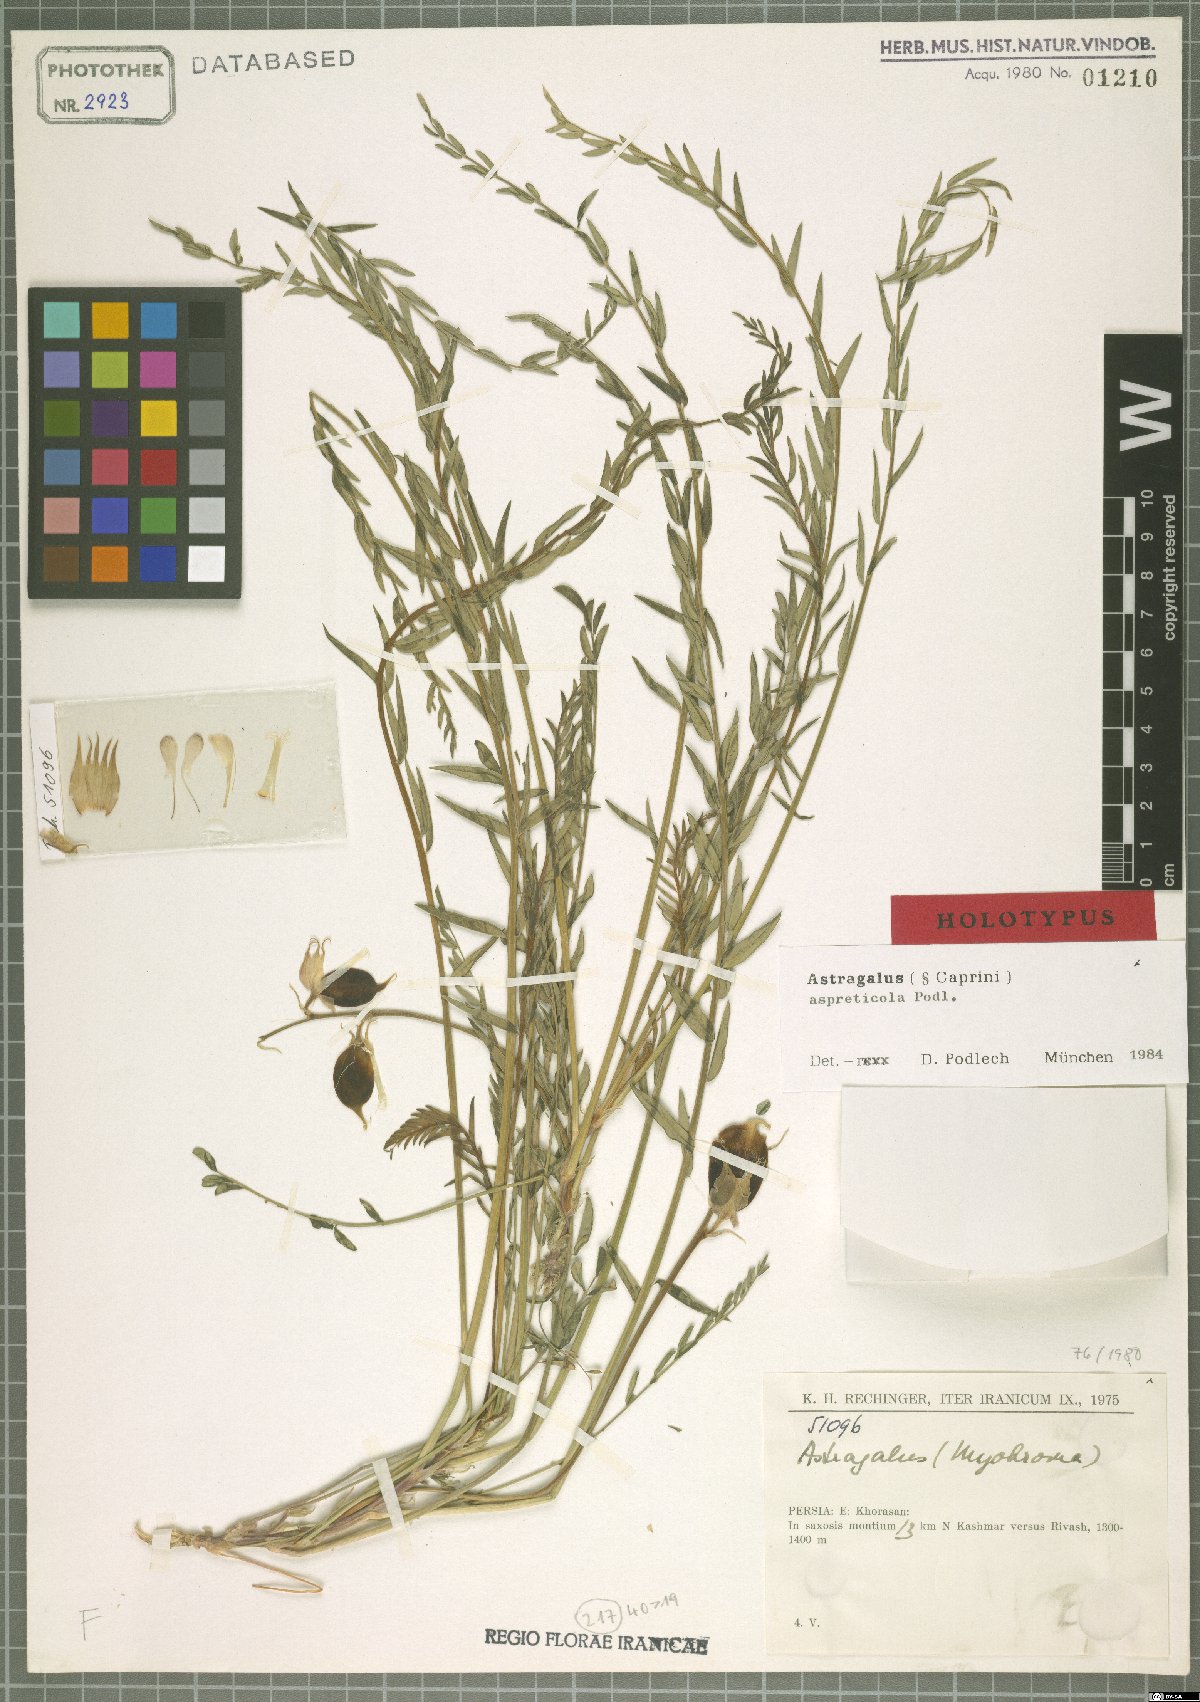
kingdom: Plantae
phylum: Tracheophyta
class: Magnoliopsida
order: Fabales
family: Fabaceae
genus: Astragalus
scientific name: Astragalus aspreticola
